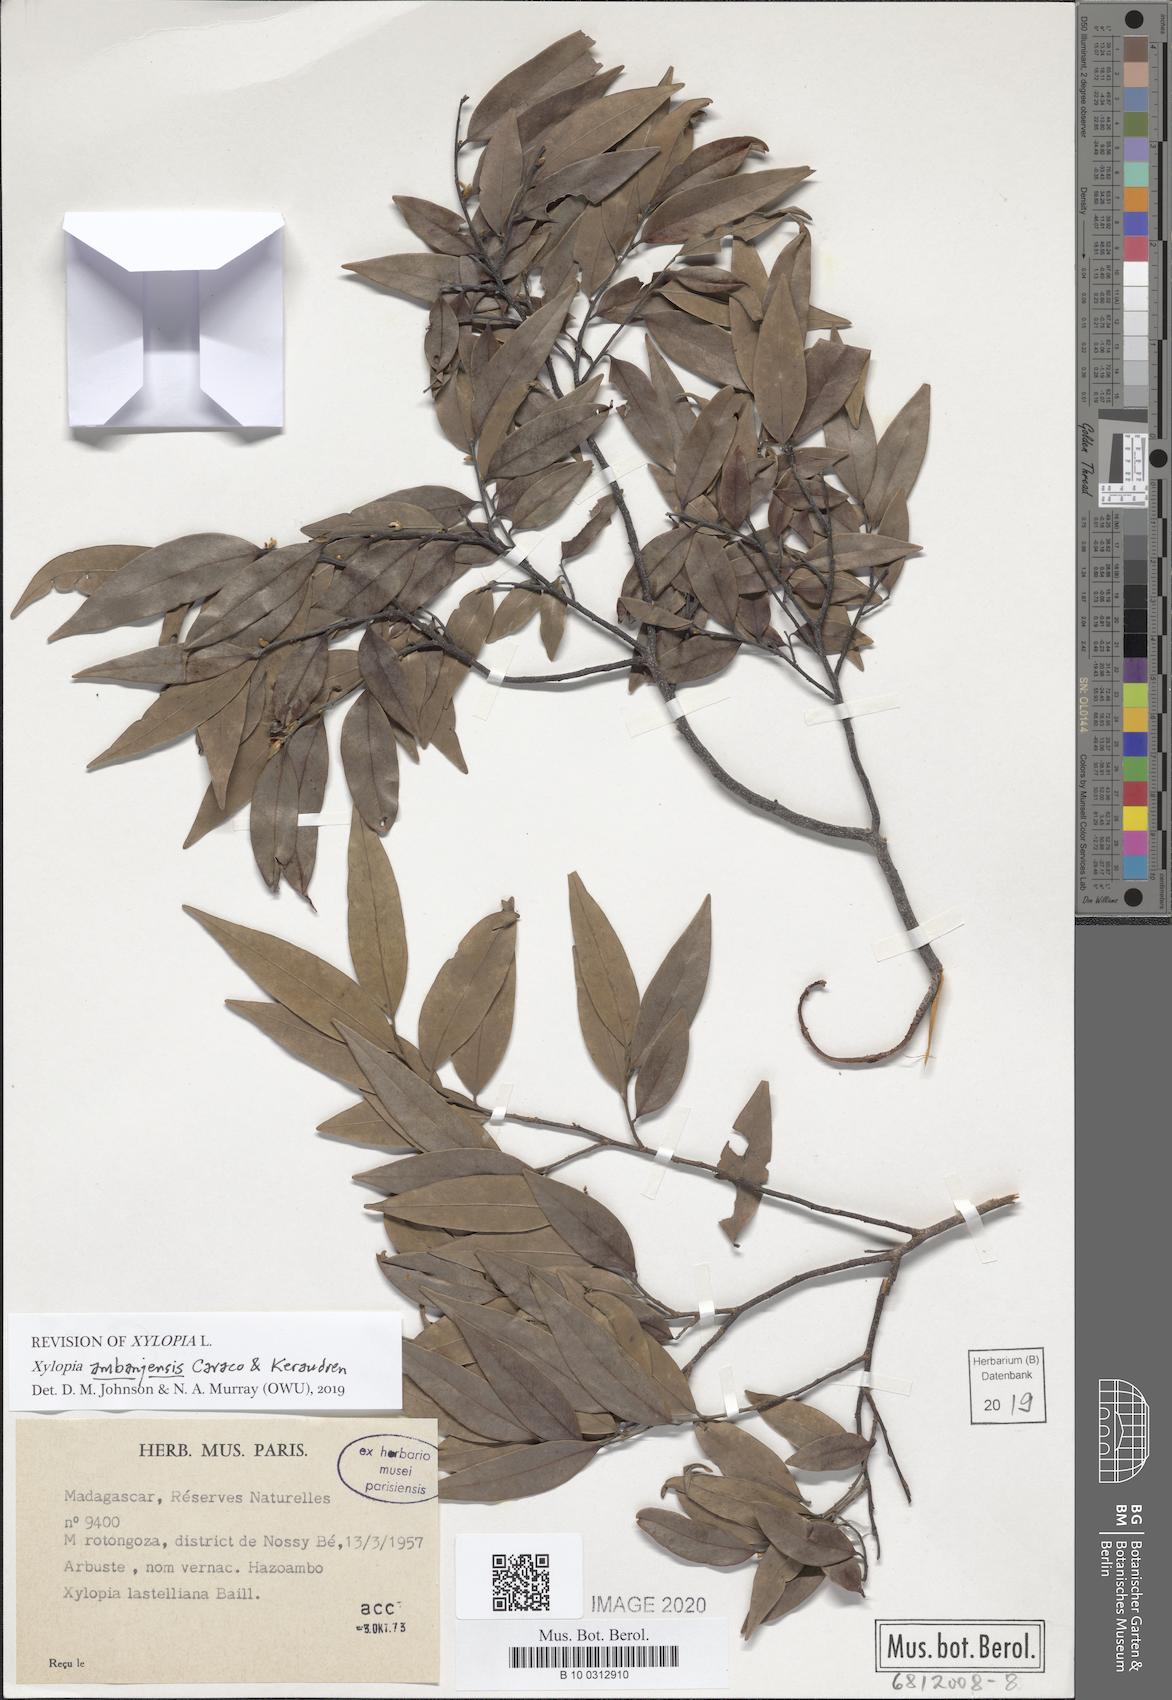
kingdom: Plantae
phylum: Tracheophyta
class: Magnoliopsida
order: Magnoliales
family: Annonaceae
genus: Xylopia
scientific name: Xylopia ambanjensis
